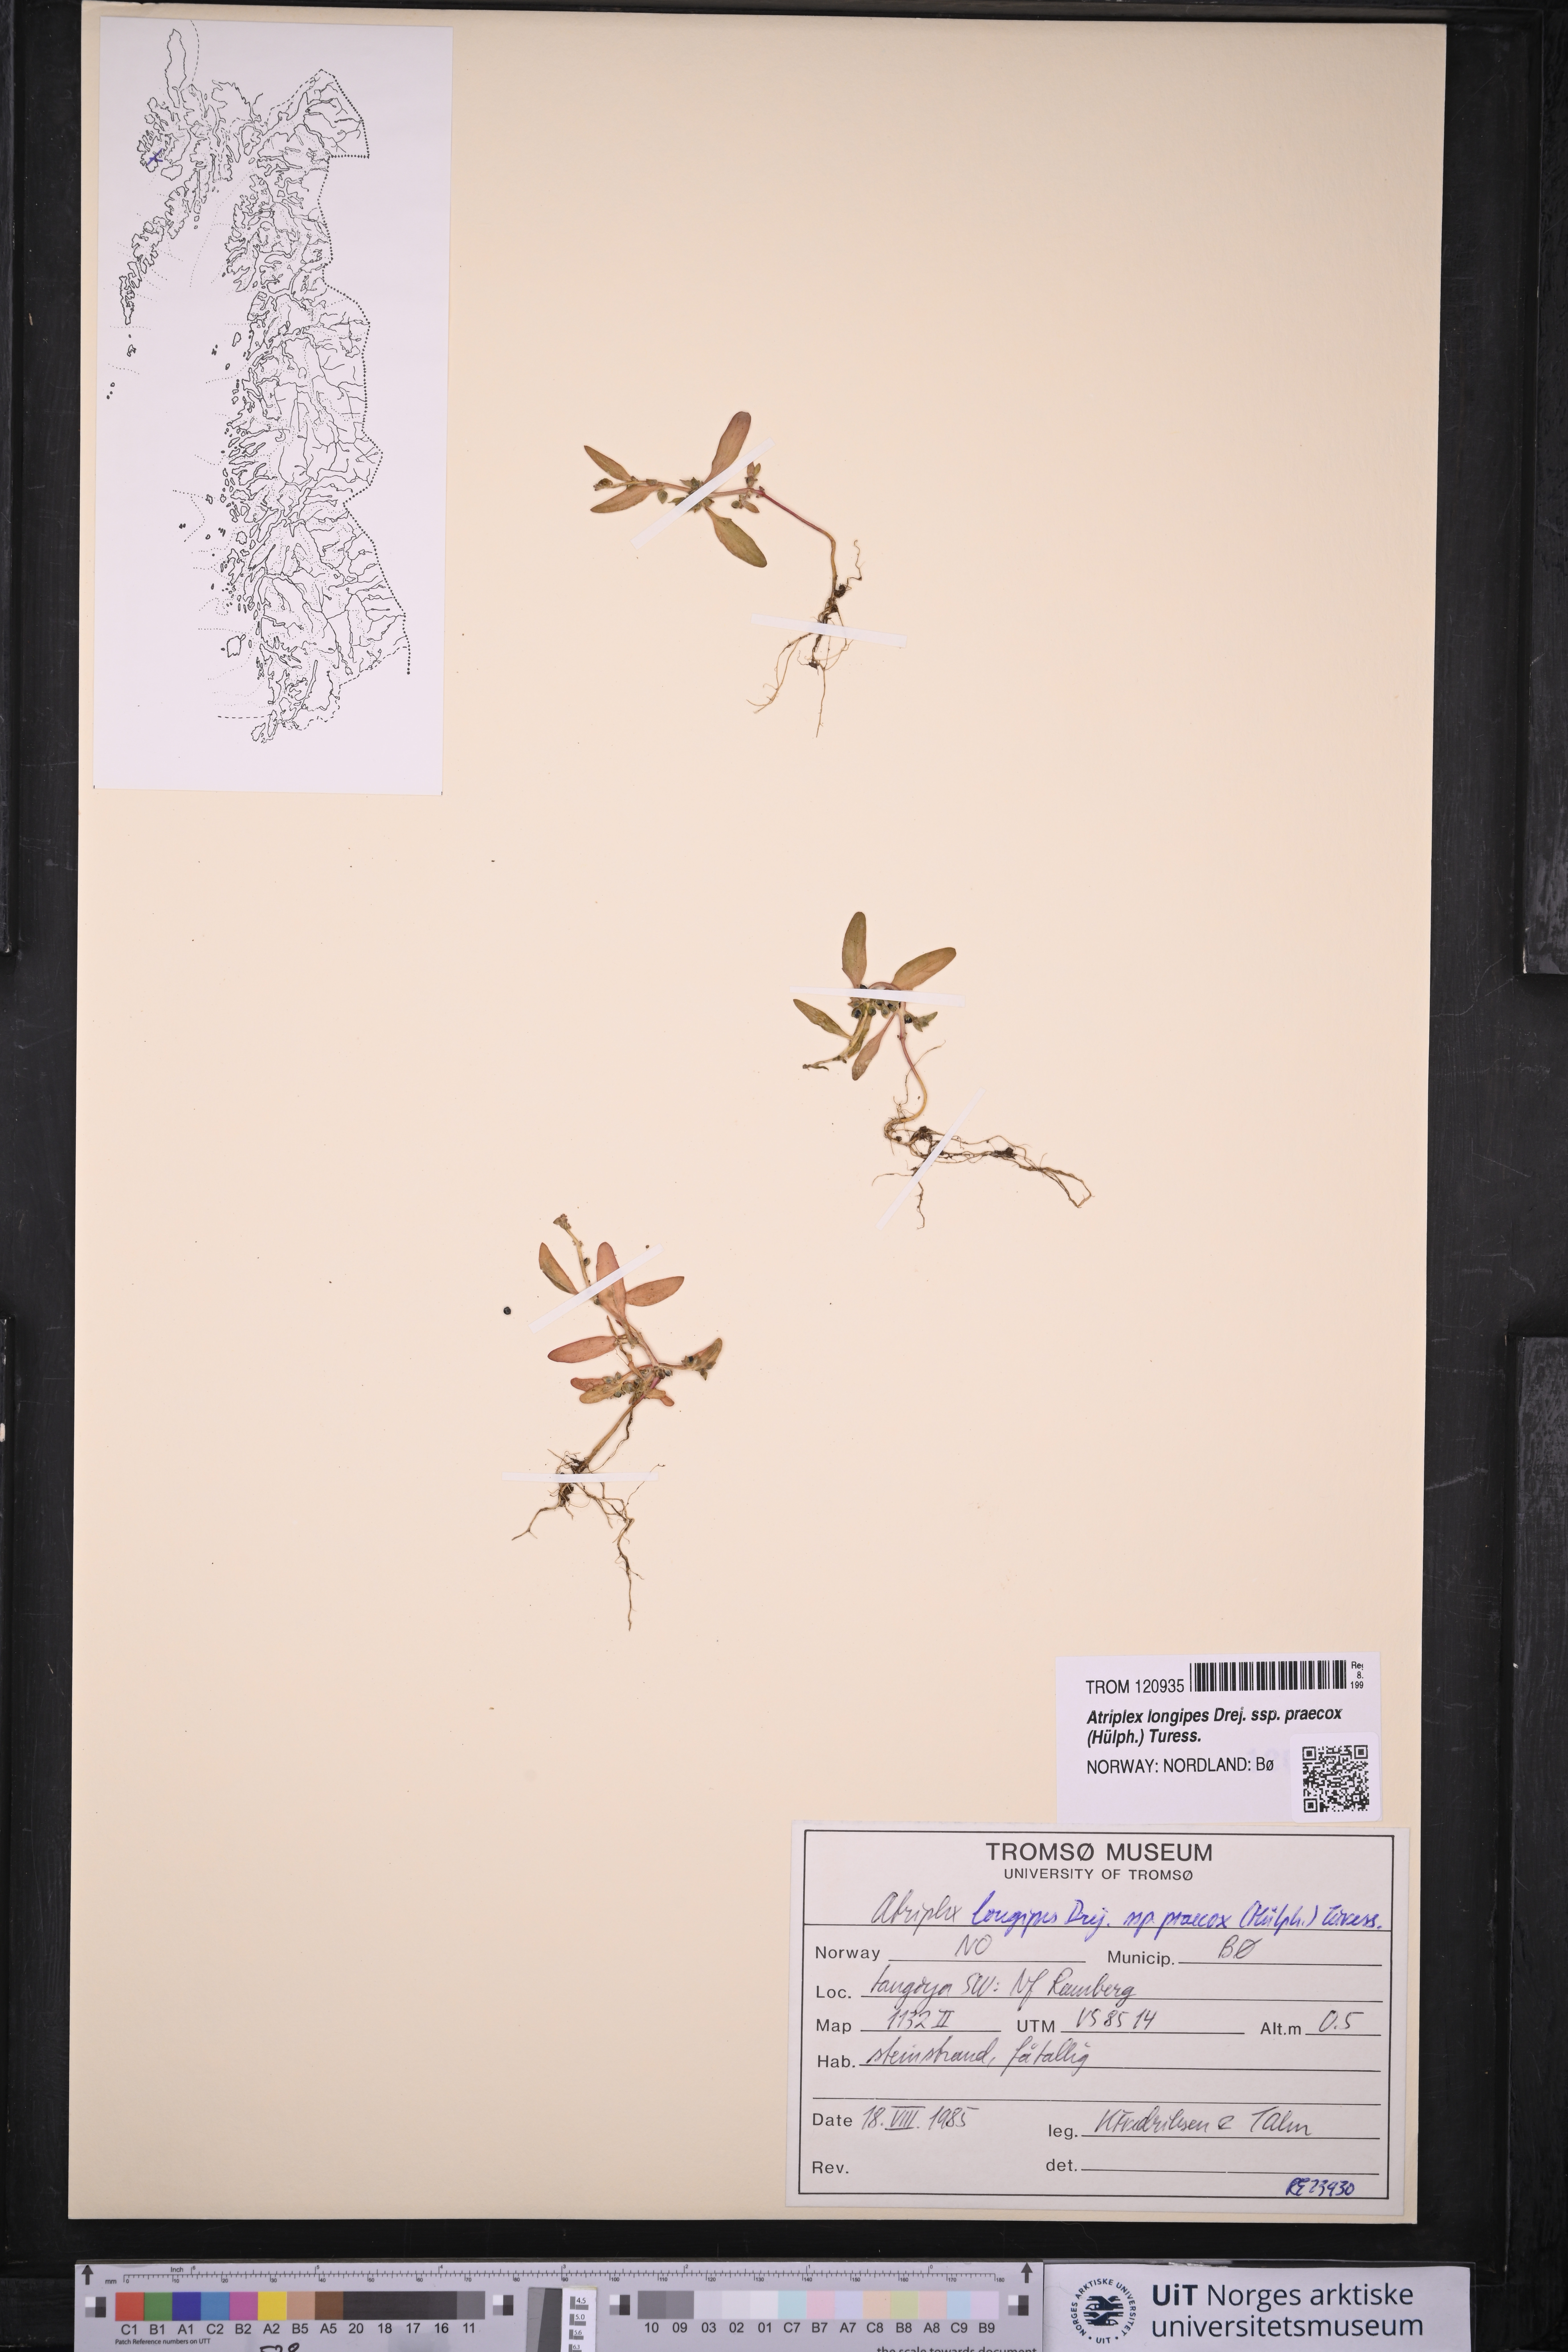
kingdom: Plantae
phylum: Tracheophyta
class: Magnoliopsida
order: Caryophyllales
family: Amaranthaceae
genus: Atriplex
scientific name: Atriplex praecox
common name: Early orache
